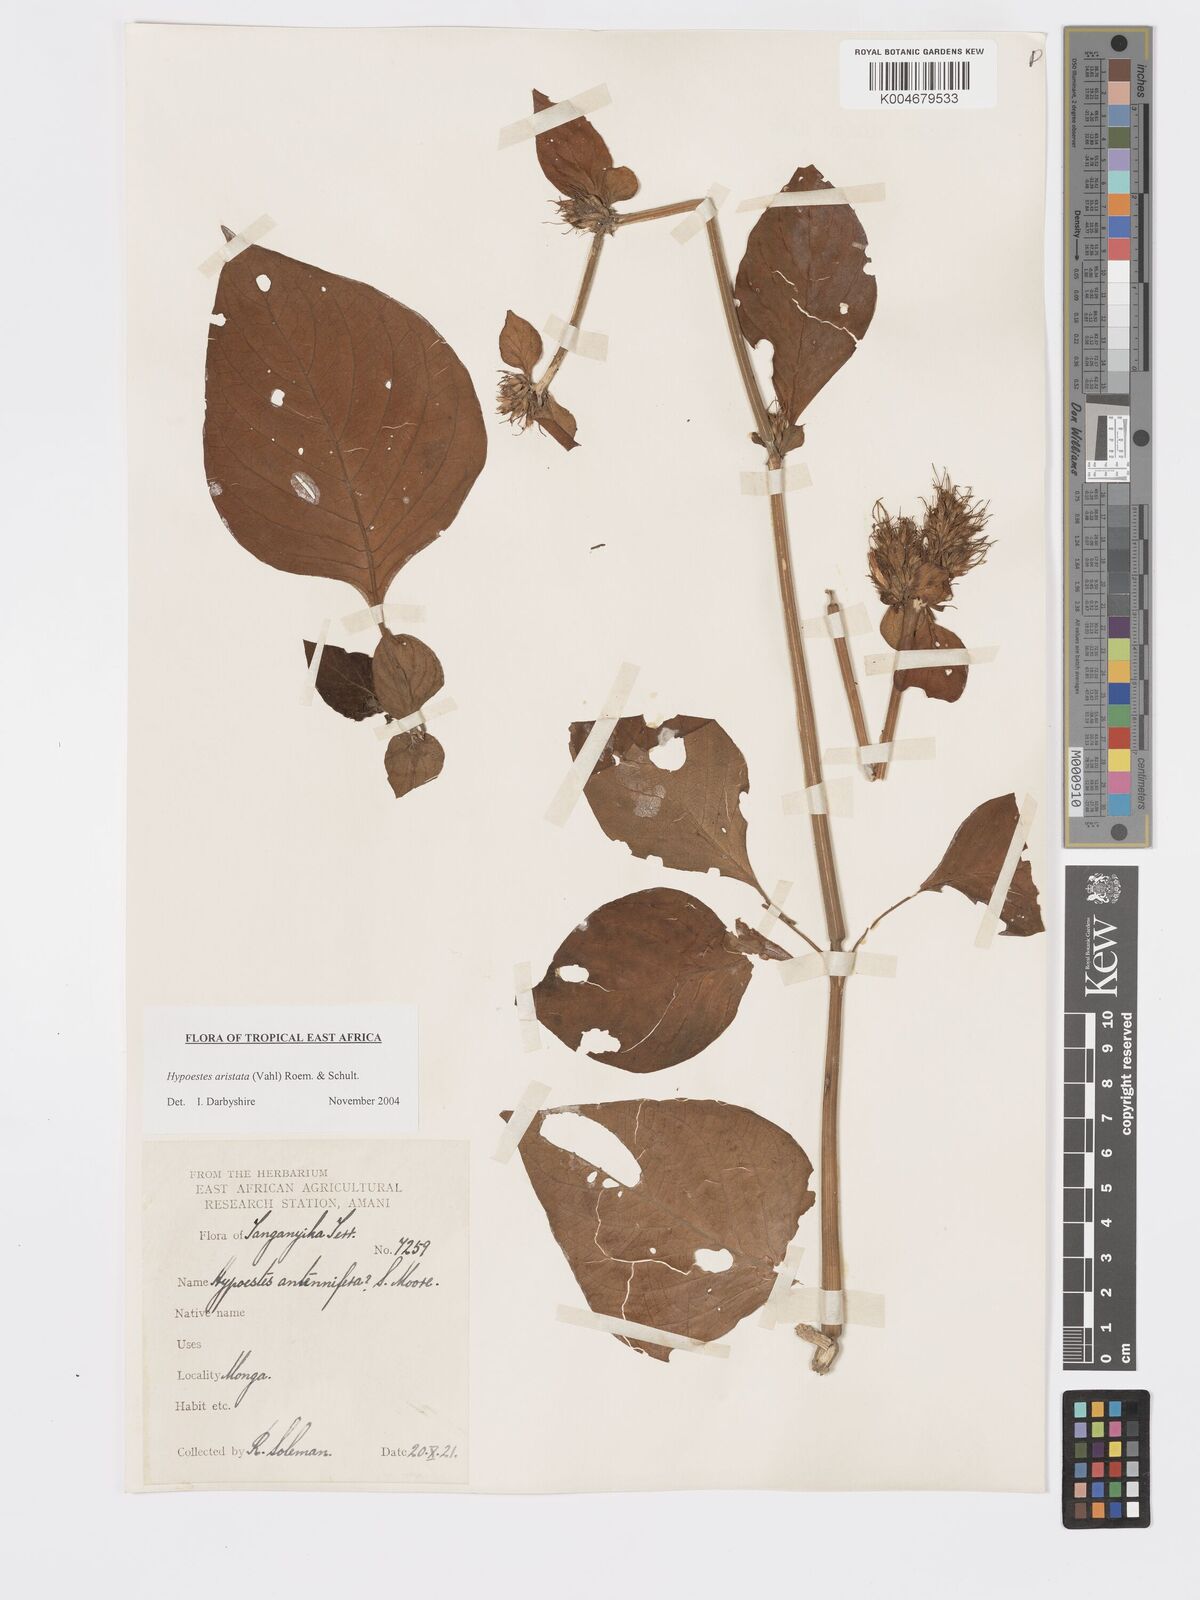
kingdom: Plantae
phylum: Tracheophyta
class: Magnoliopsida
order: Lamiales
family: Acanthaceae
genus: Hypoestes
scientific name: Hypoestes aristata
